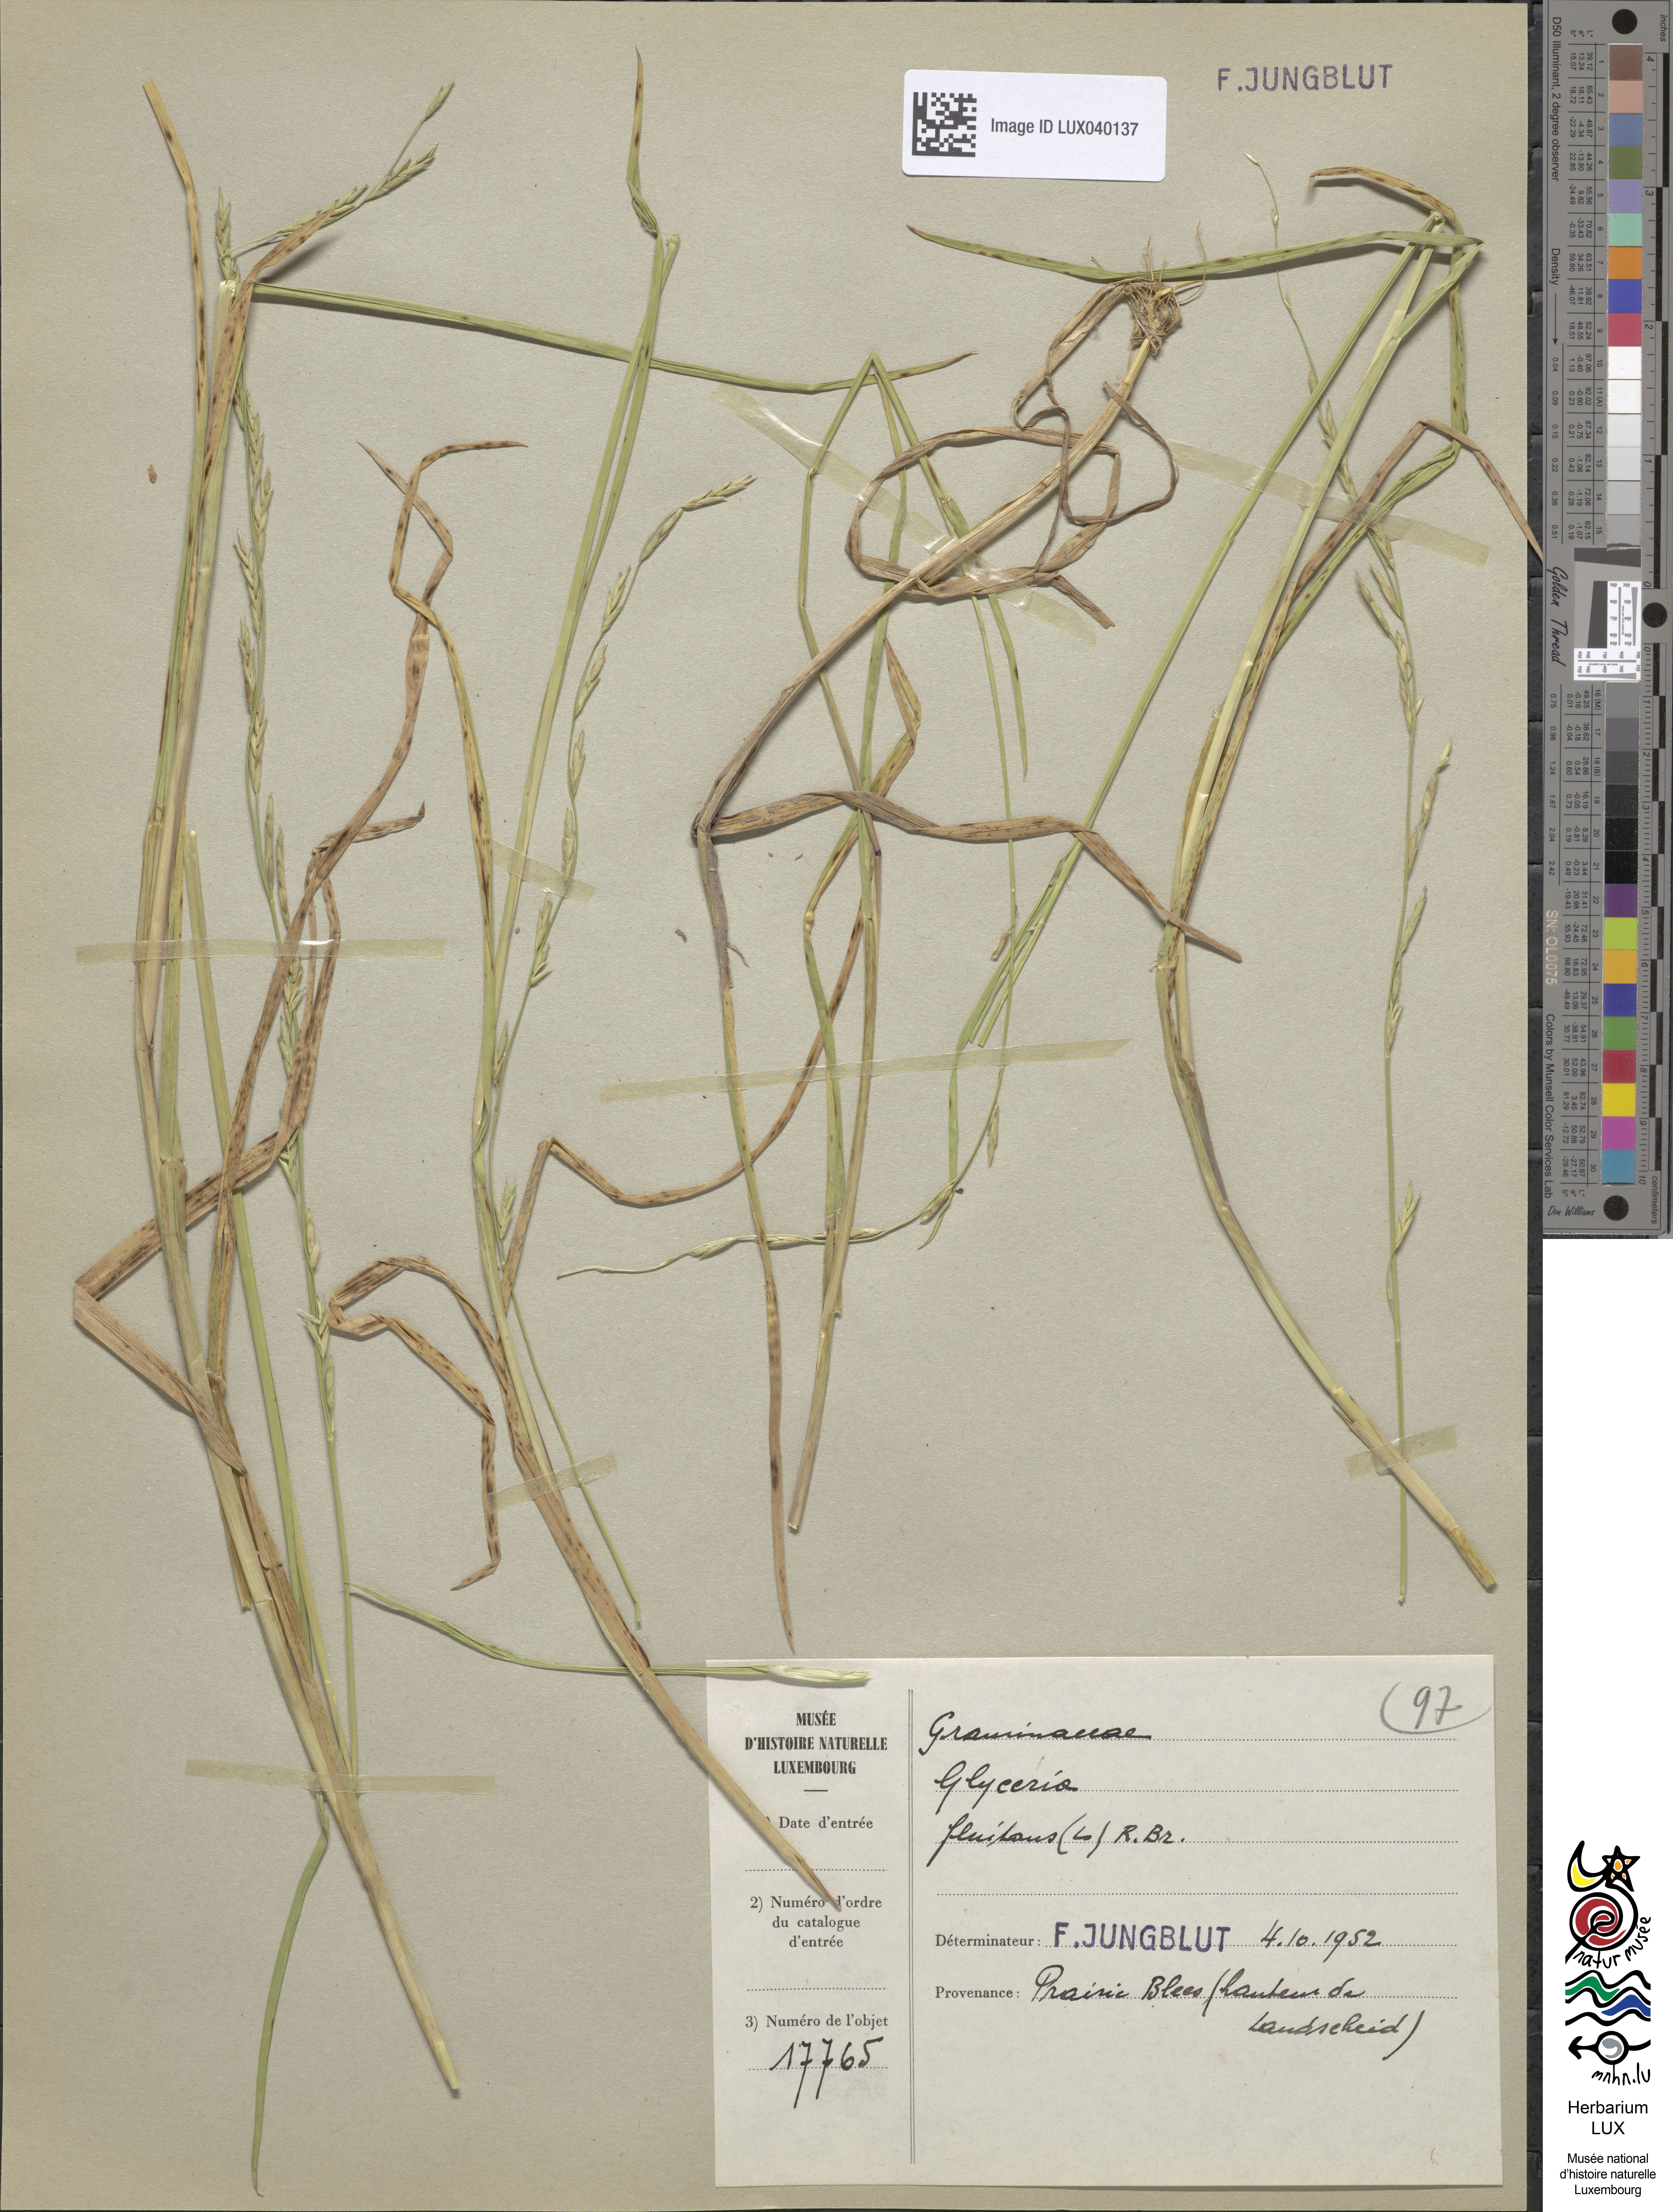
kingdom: Plantae
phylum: Tracheophyta
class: Liliopsida
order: Poales
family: Poaceae
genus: Glyceria
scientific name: Glyceria fluitans
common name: Floating sweet-grass
